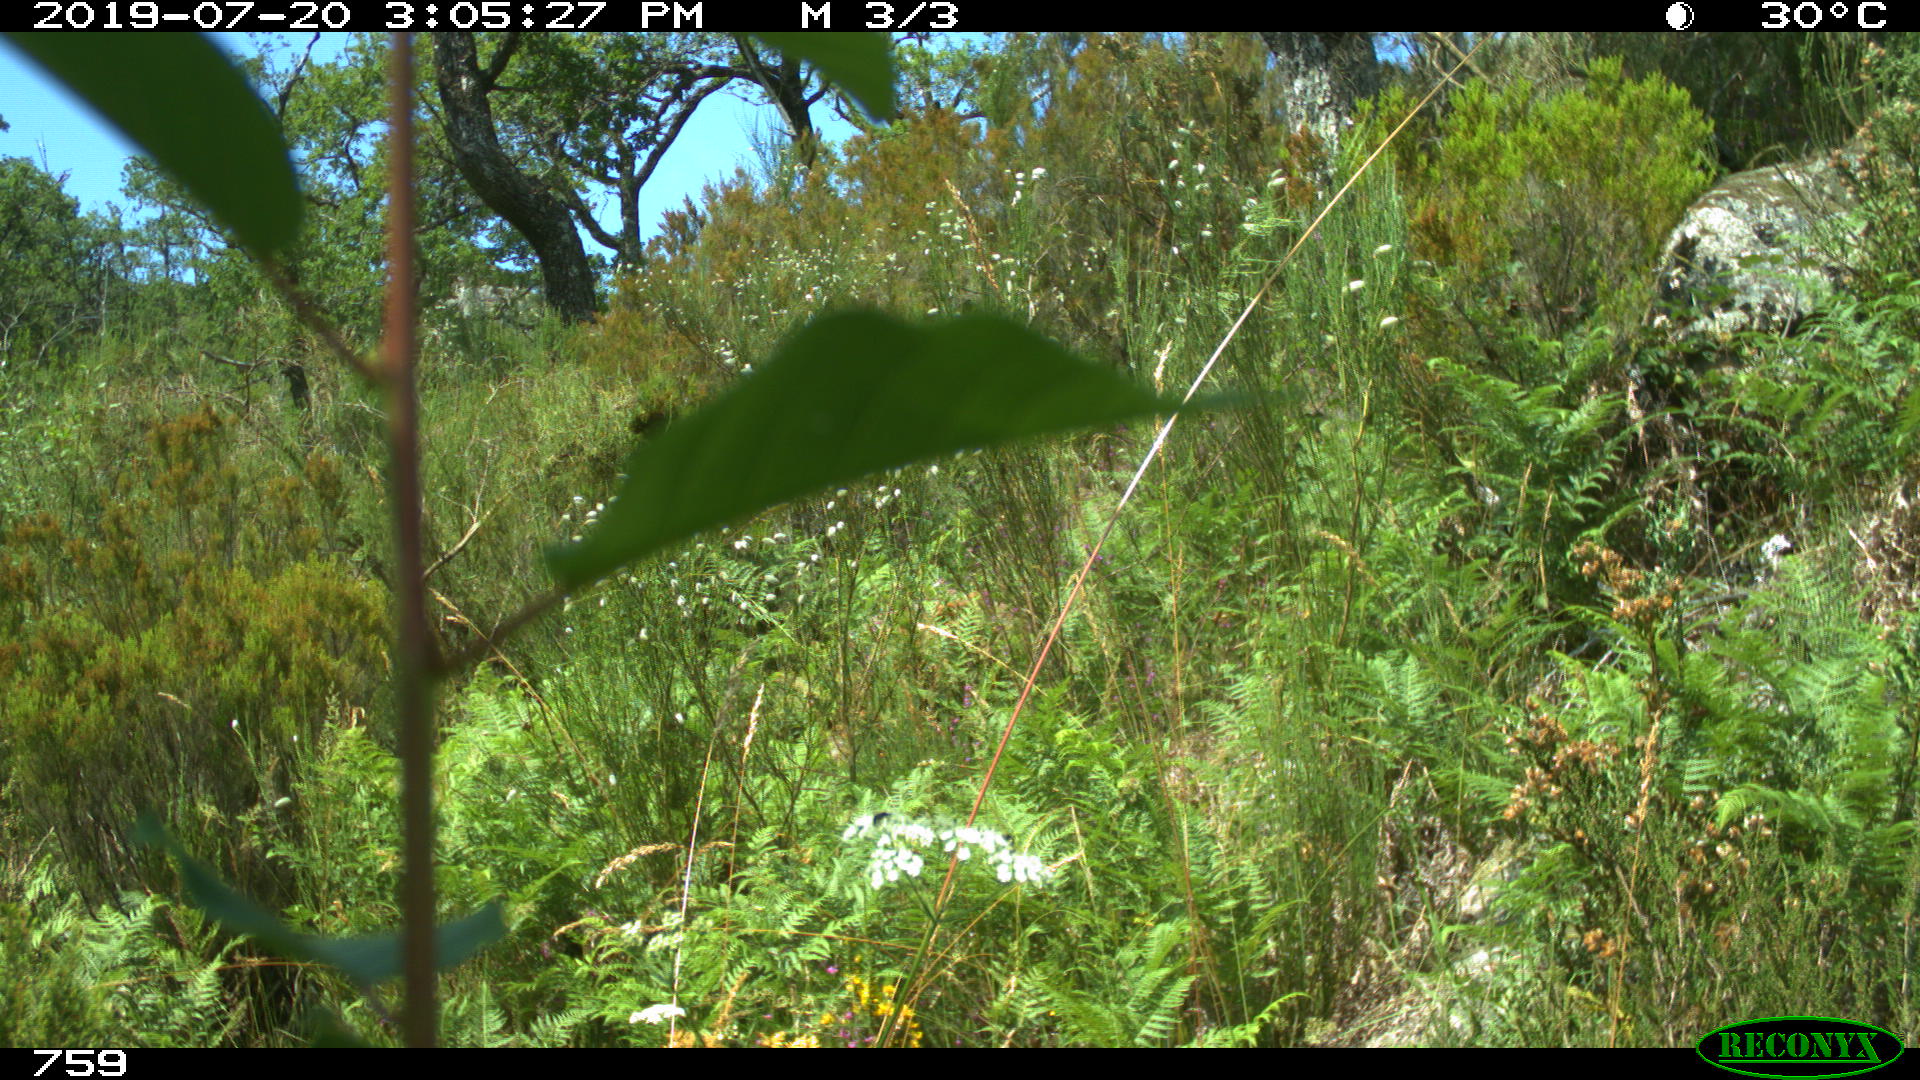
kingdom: Animalia
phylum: Chordata
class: Mammalia
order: Artiodactyla
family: Suidae
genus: Sus
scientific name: Sus scrofa
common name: Wild boar
